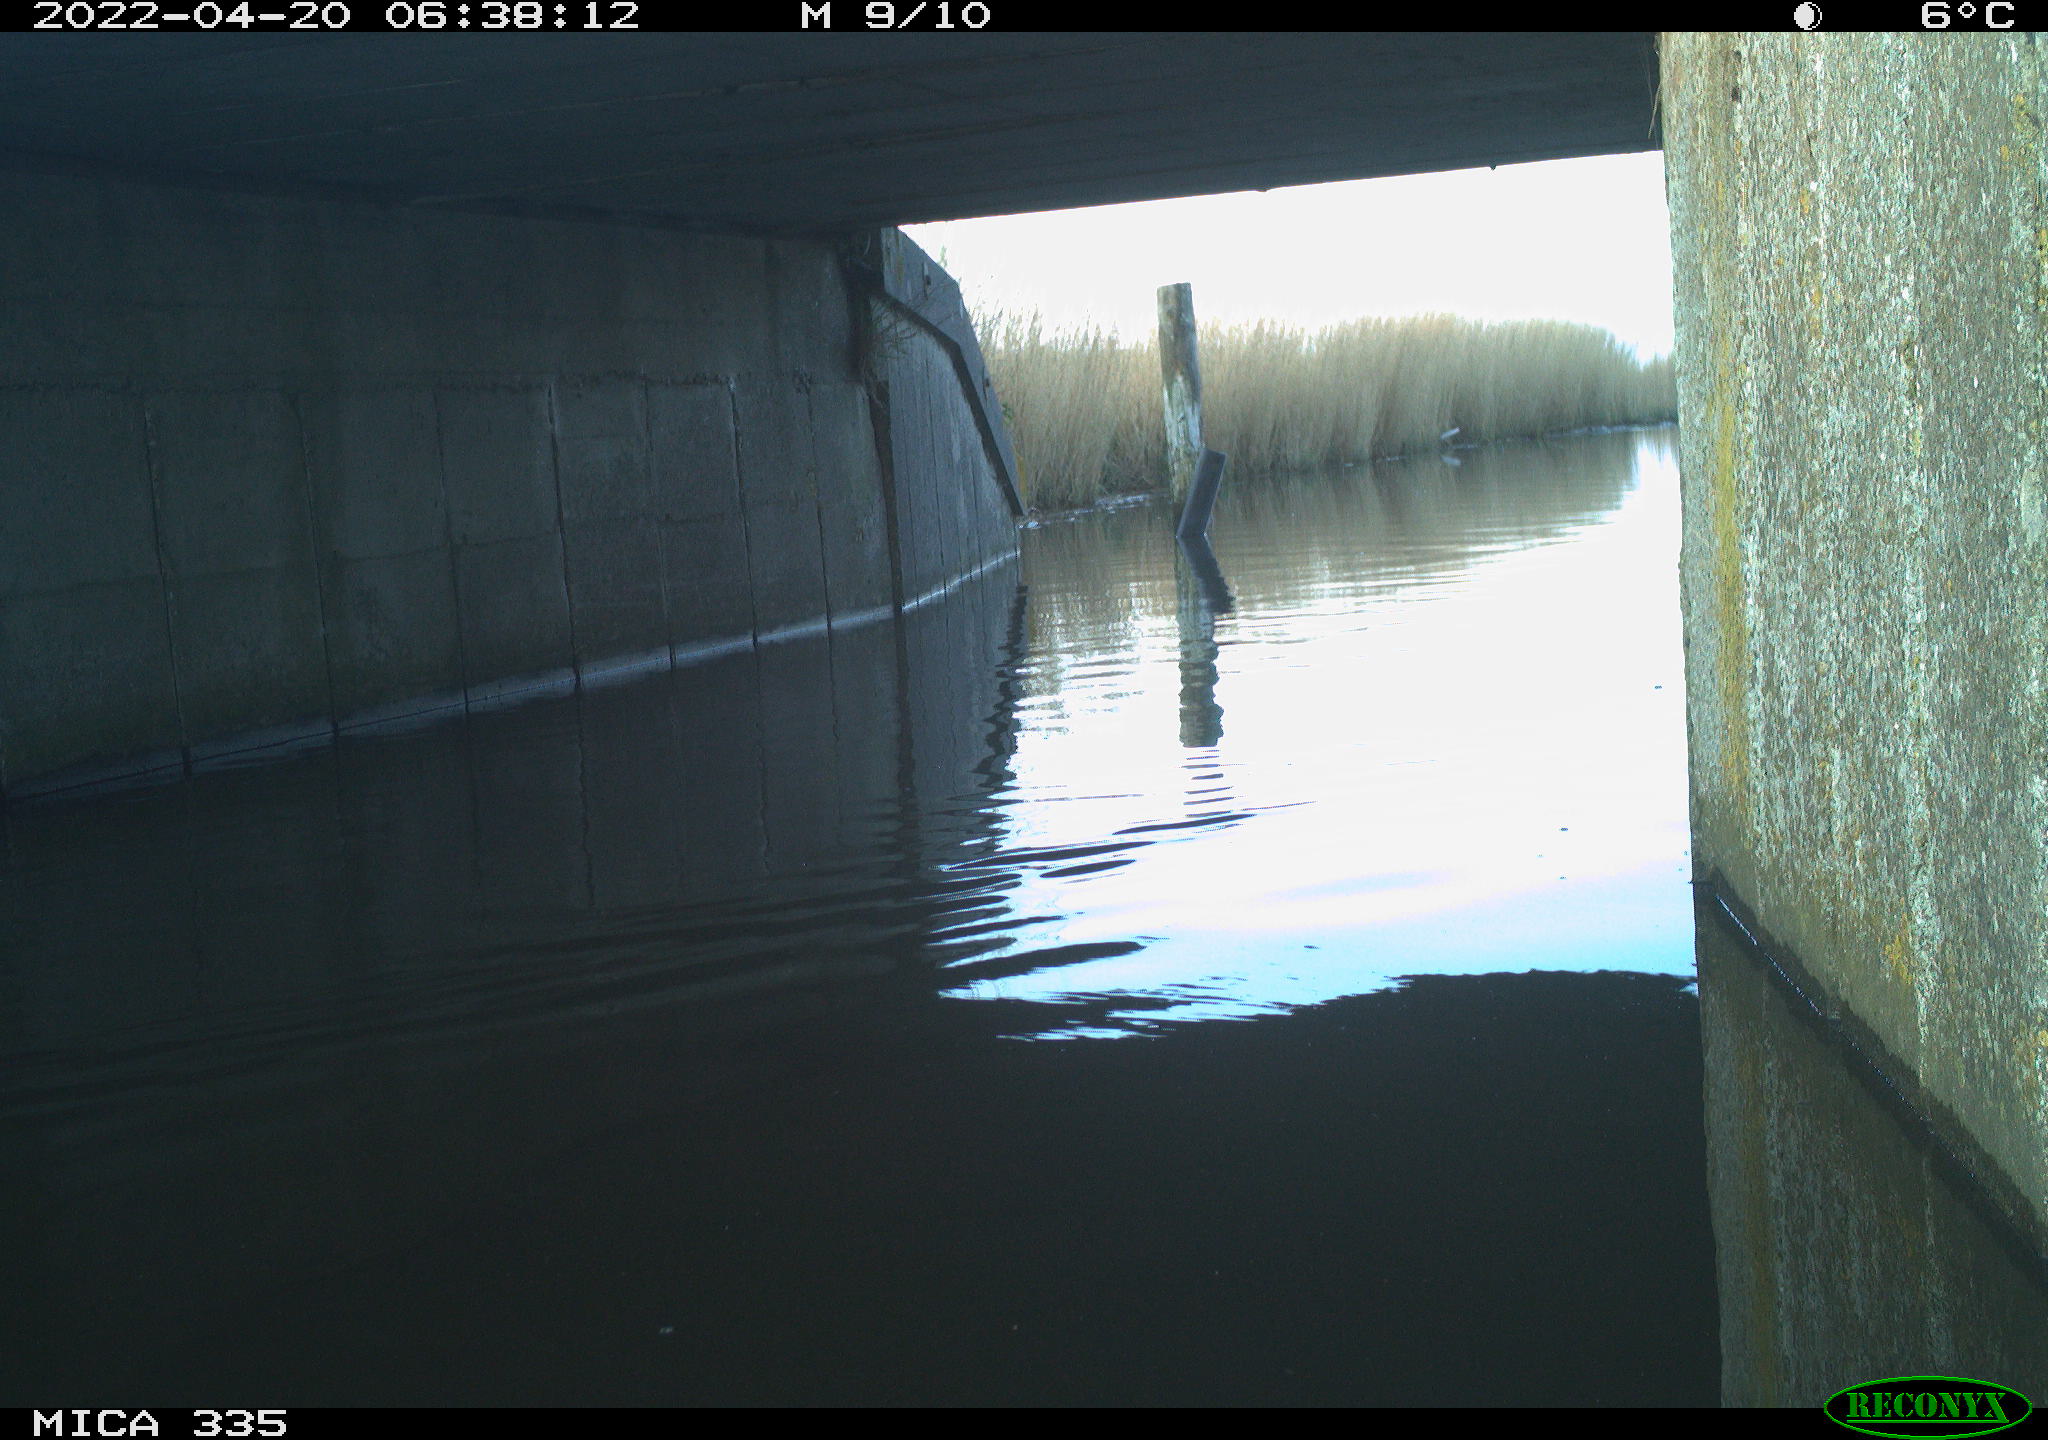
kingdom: Animalia
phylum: Chordata
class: Aves
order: Gruiformes
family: Rallidae
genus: Fulica
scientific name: Fulica atra
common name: Eurasian coot
